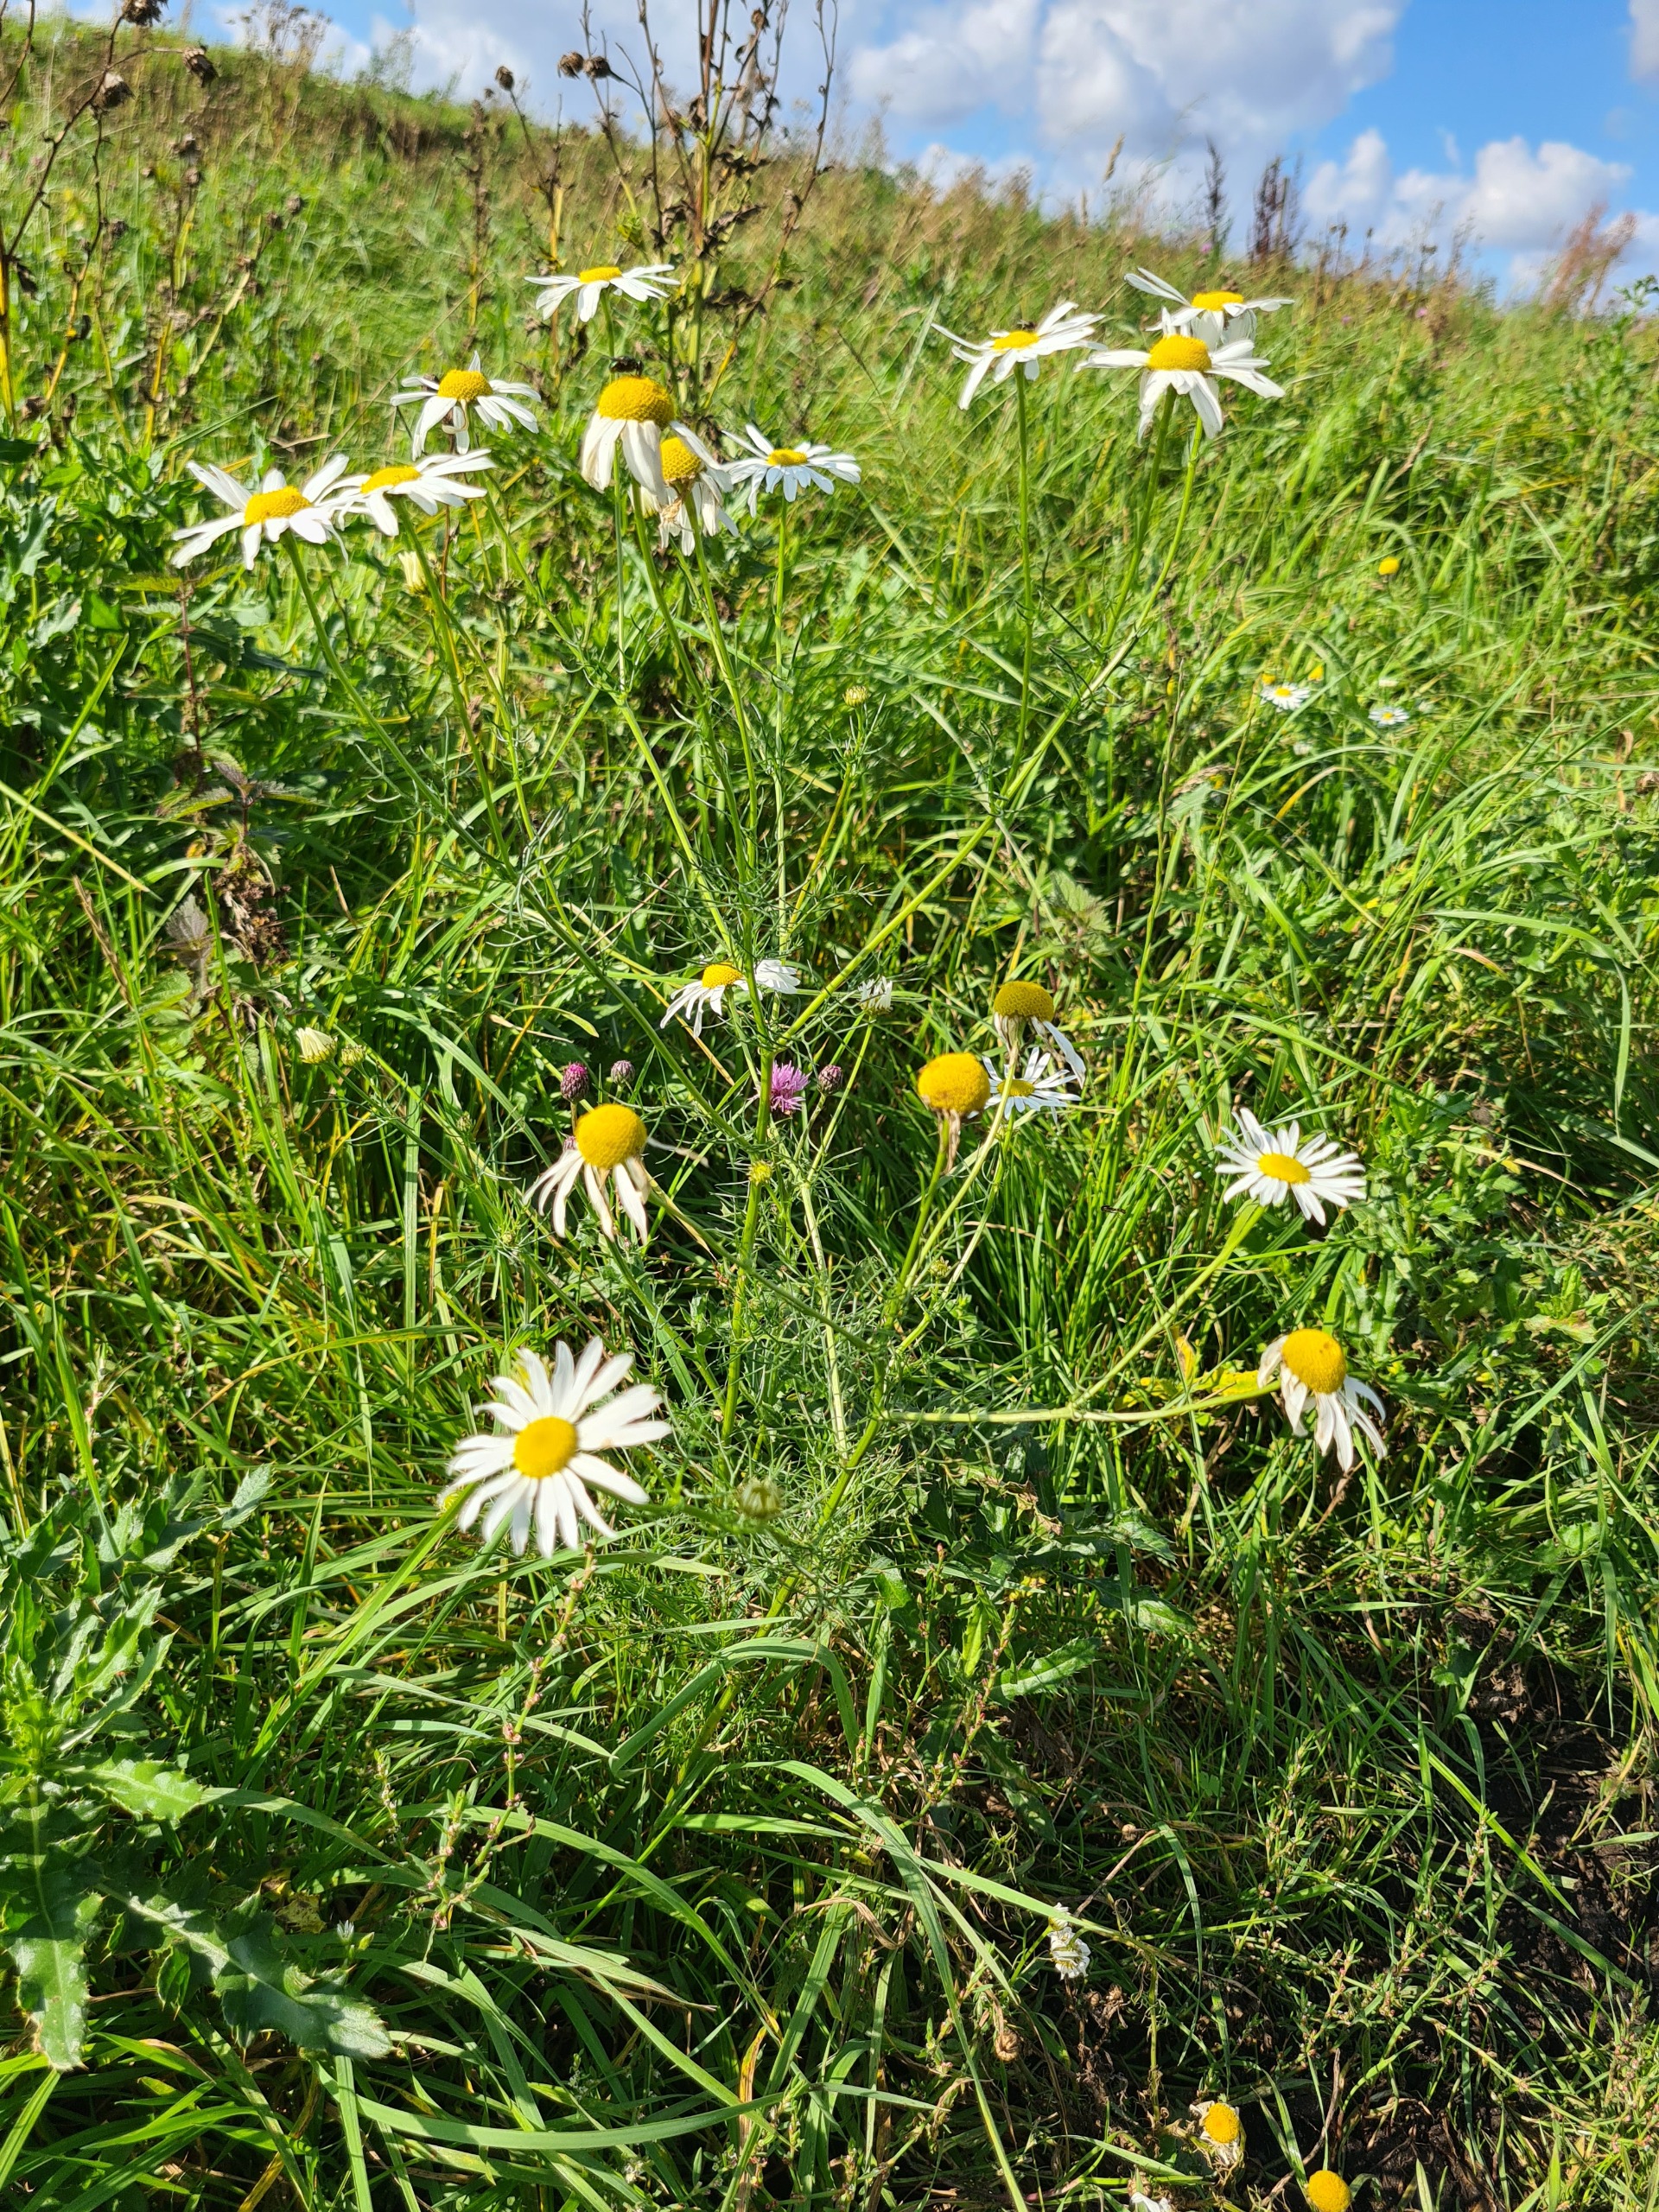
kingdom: Plantae
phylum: Tracheophyta
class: Magnoliopsida
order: Asterales
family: Asteraceae
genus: Tripleurospermum
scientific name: Tripleurospermum inodorum
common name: Lugtløs kamille
